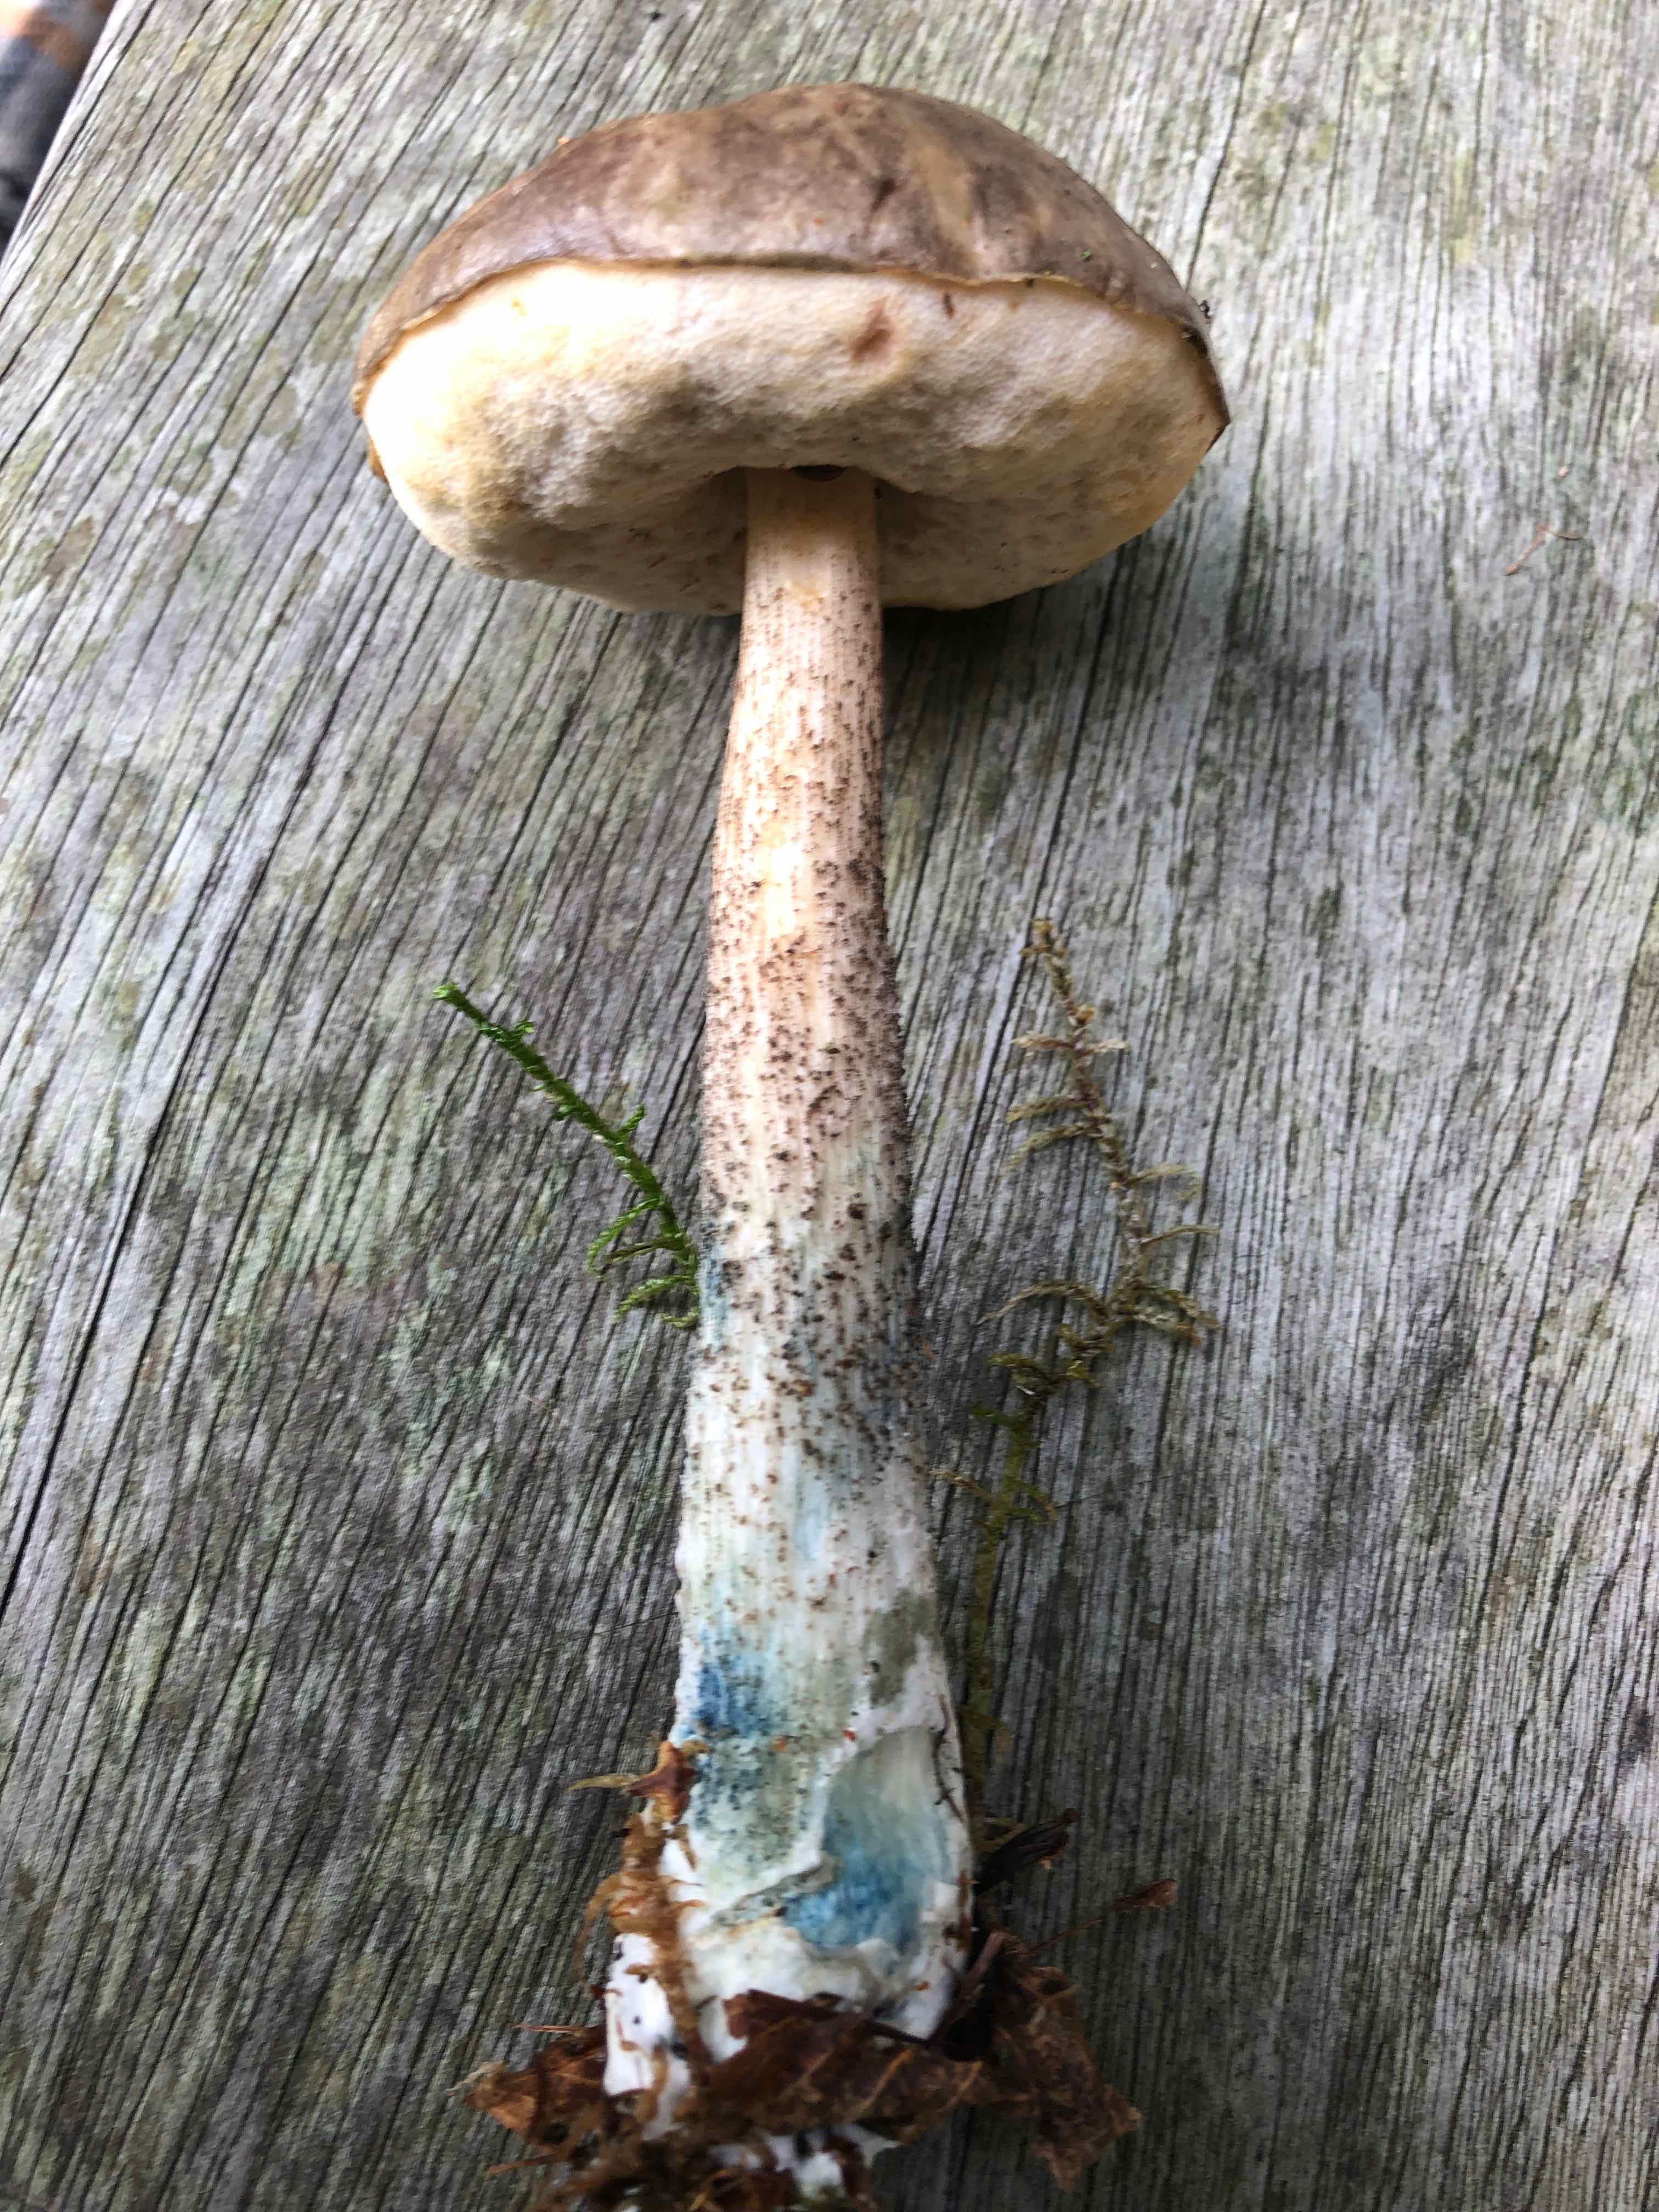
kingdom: Fungi
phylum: Basidiomycota
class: Agaricomycetes
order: Boletales
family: Boletaceae
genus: Leccinum
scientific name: Leccinum variicolor
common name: flammet skælrørhat
